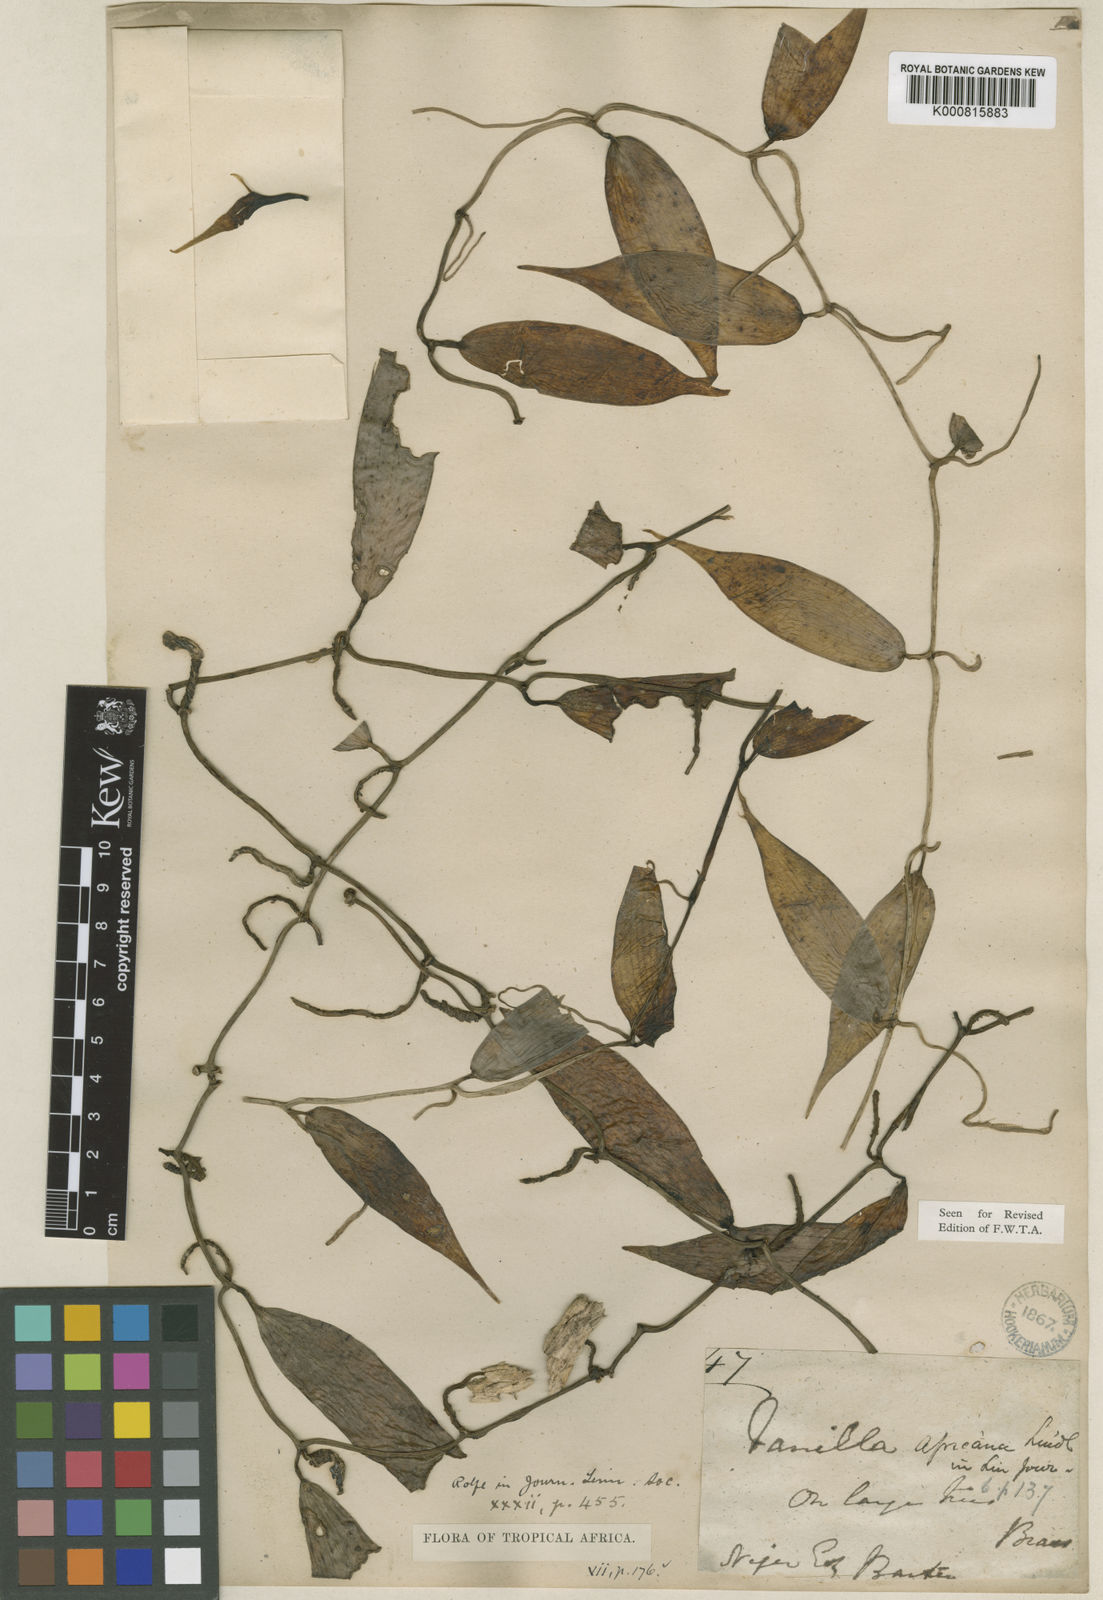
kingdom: Plantae
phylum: Tracheophyta
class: Liliopsida
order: Asparagales
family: Orchidaceae
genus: Vanilla
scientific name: Vanilla africana
